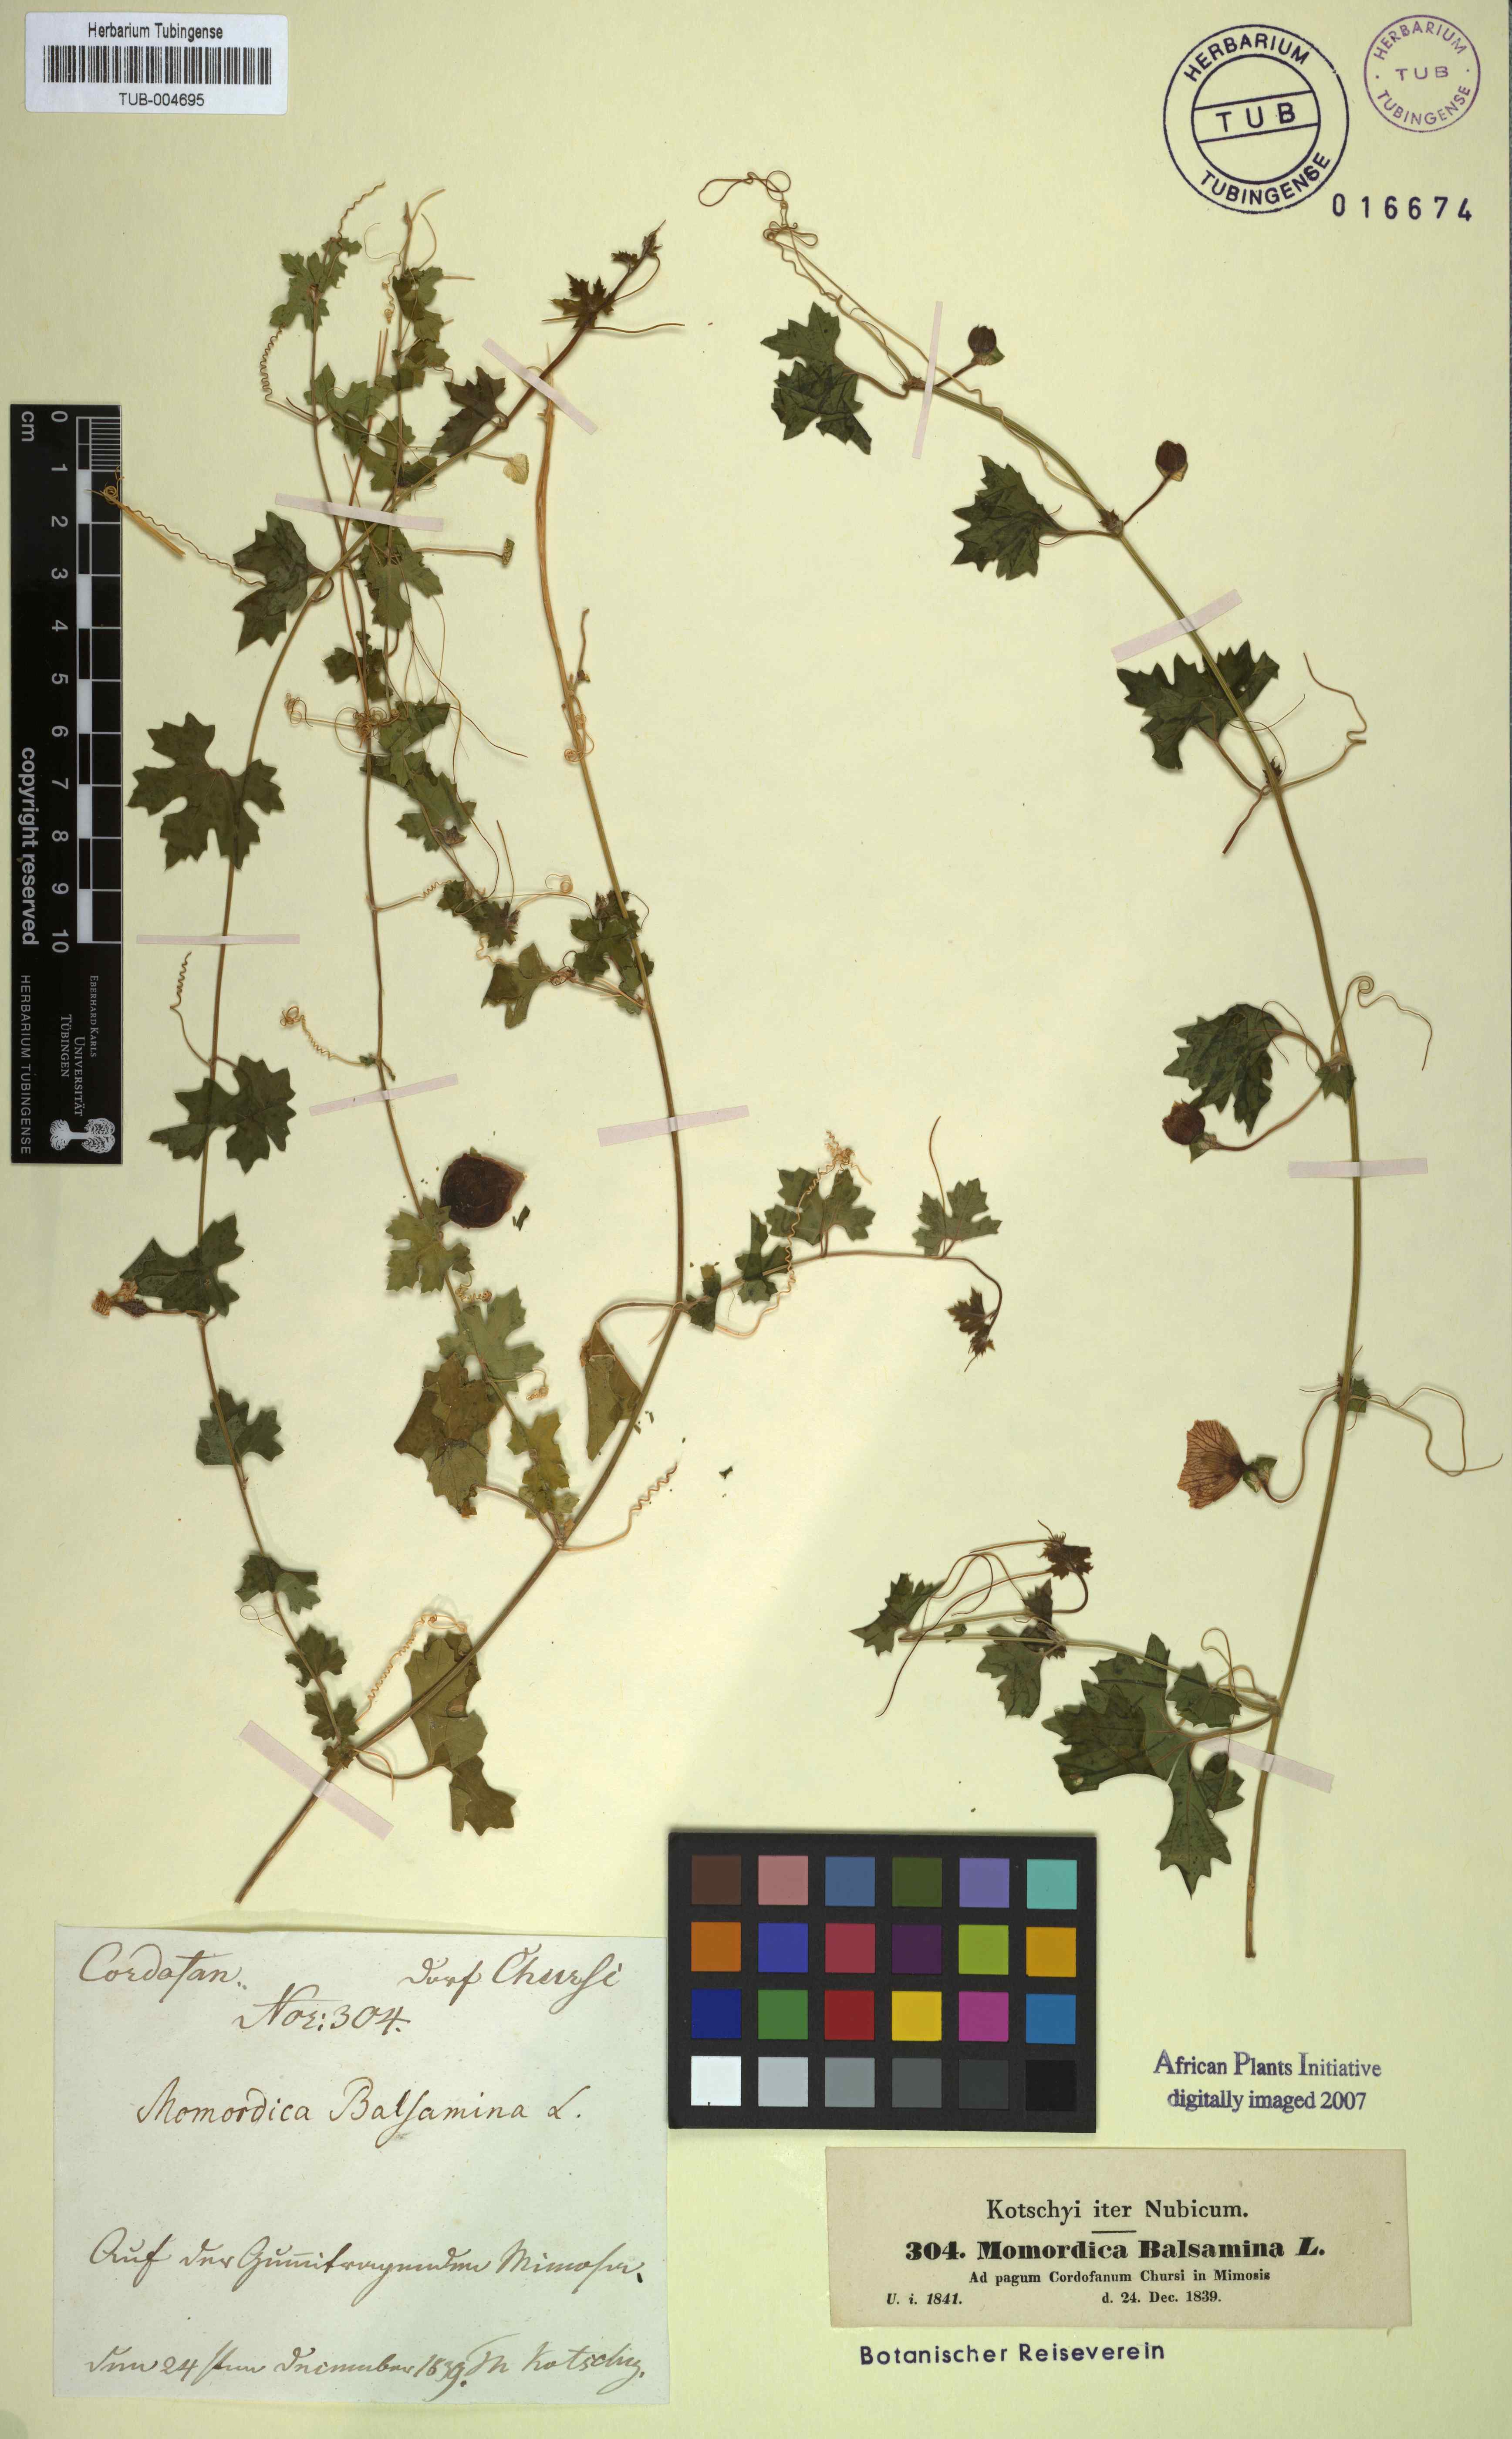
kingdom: Plantae
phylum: Tracheophyta
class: Magnoliopsida
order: Cucurbitales
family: Cucurbitaceae
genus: Momordica
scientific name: Momordica balsamina
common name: Southern balsampear
